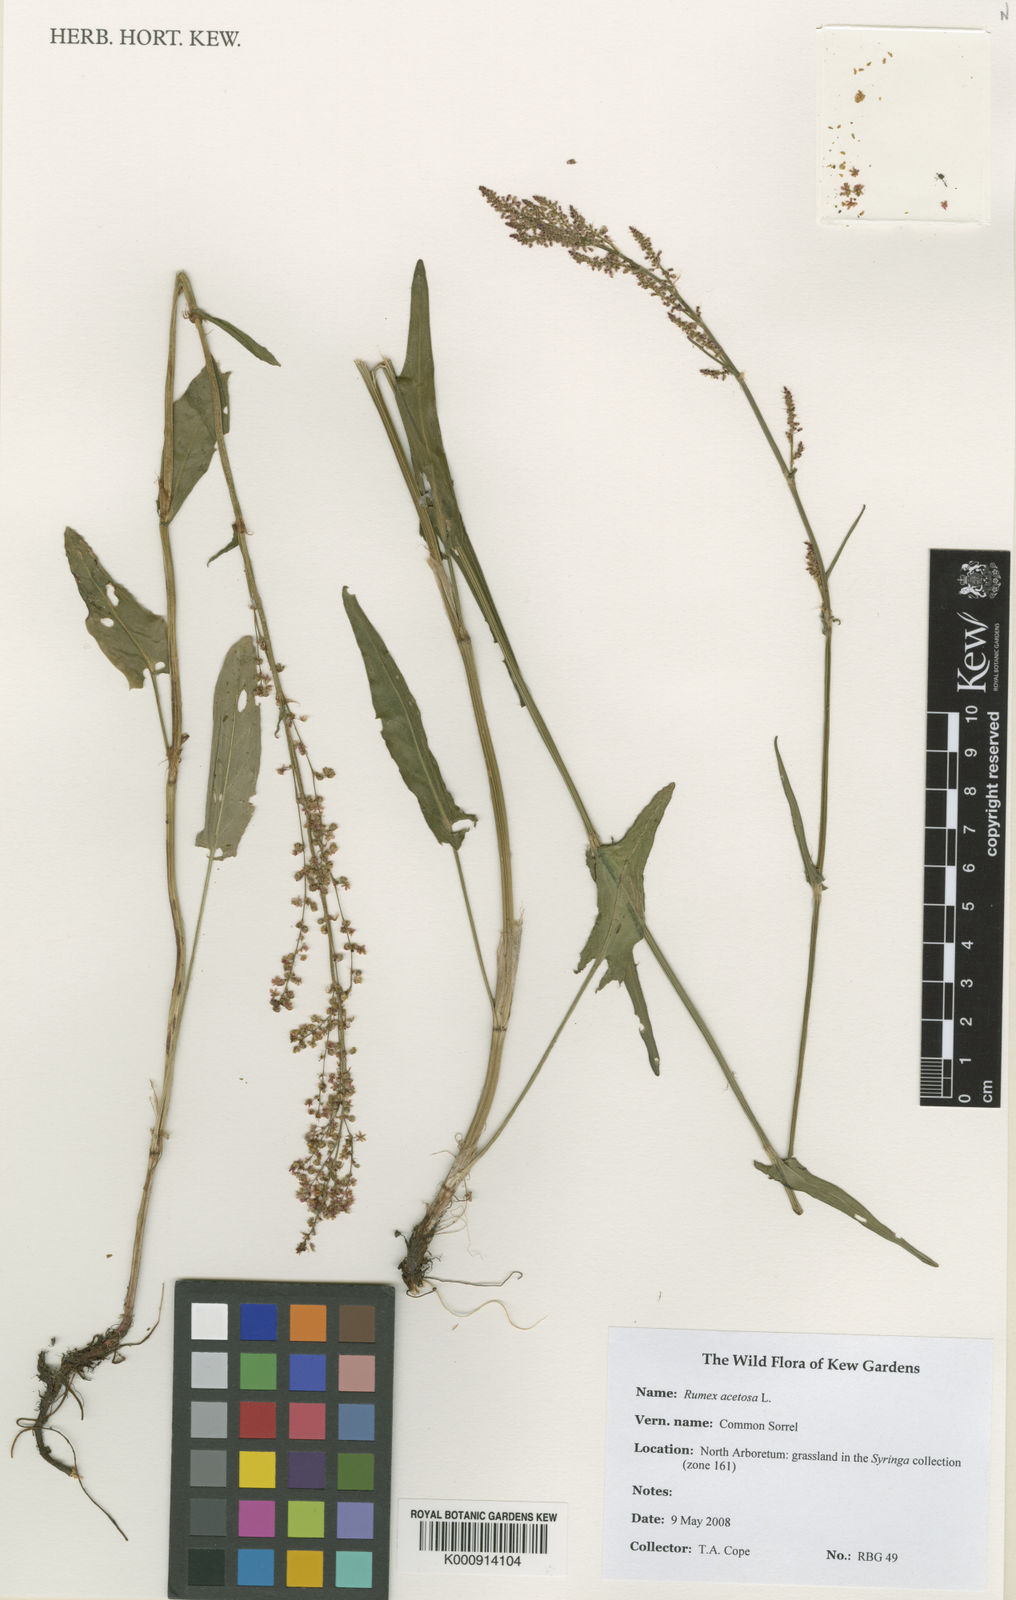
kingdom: Plantae
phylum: Tracheophyta
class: Magnoliopsida
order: Caryophyllales
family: Polygonaceae
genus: Rumex
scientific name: Rumex acetosa
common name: Garden sorrel
